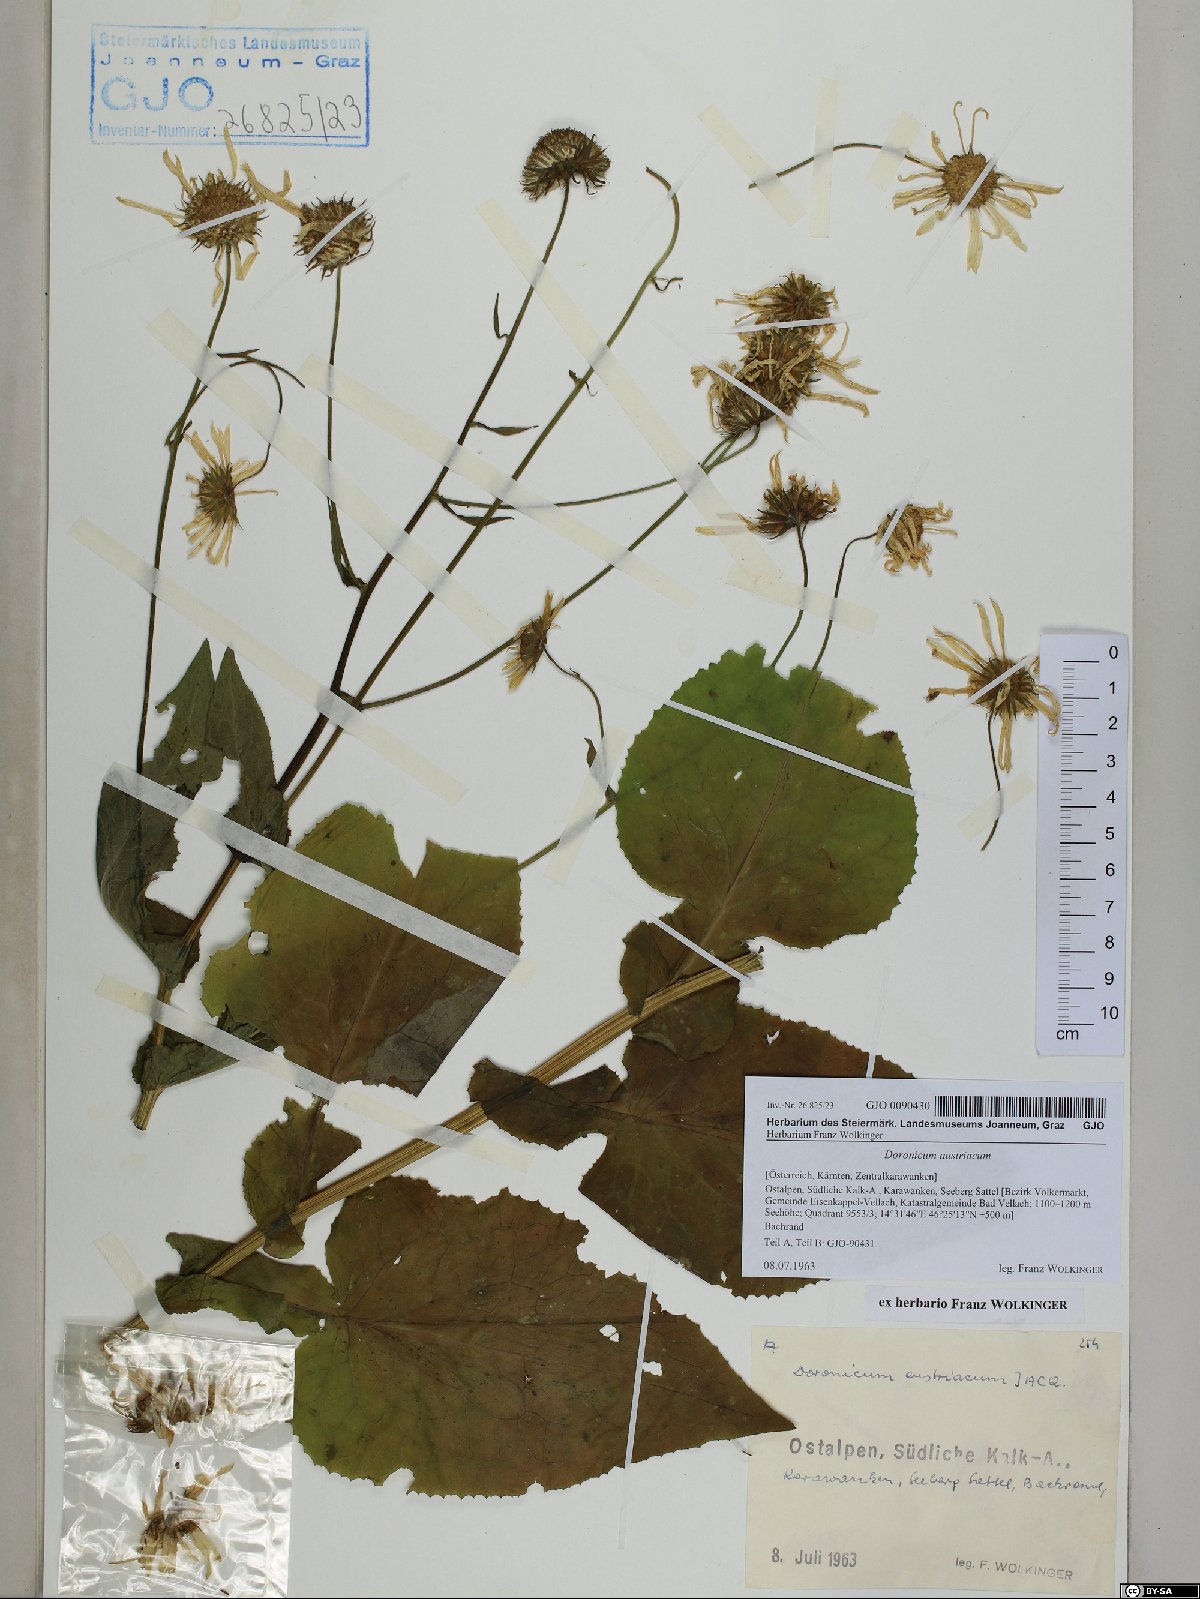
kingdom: Plantae
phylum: Tracheophyta
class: Magnoliopsida
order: Asterales
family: Asteraceae
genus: Doronicum
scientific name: Doronicum austriacum
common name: Austrian leopard's-bane
